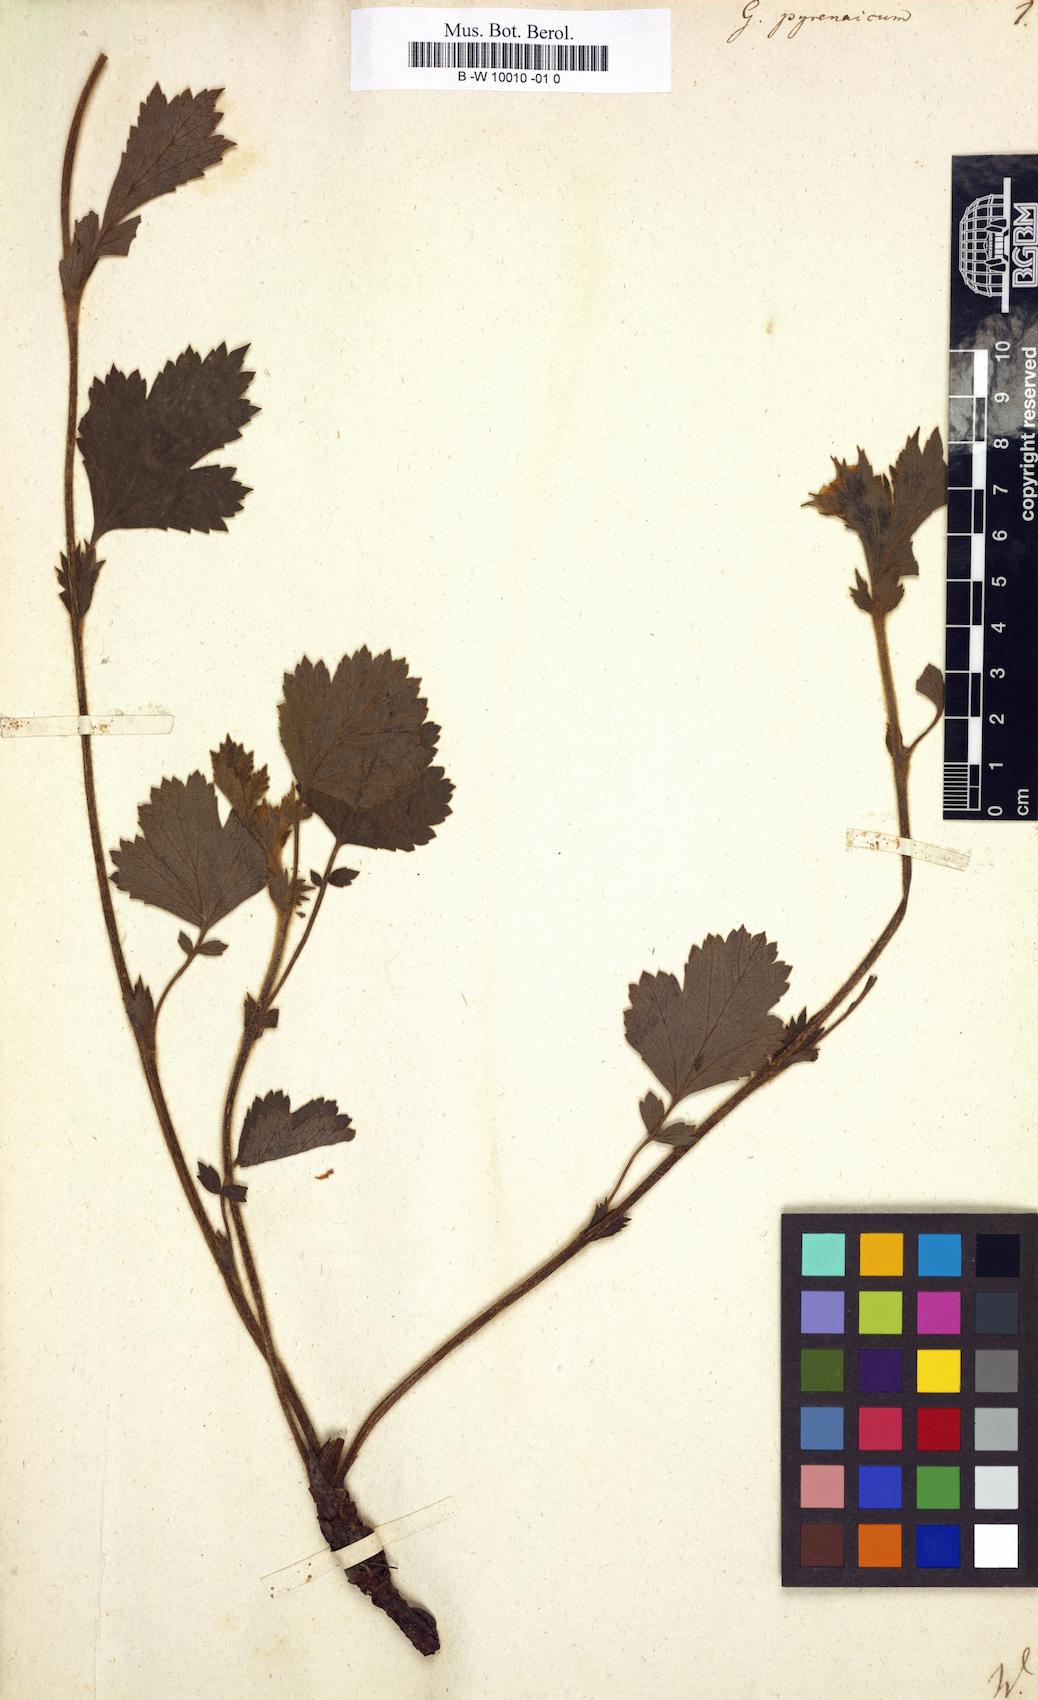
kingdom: Plantae
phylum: Tracheophyta
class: Magnoliopsida
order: Rosales
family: Rosaceae
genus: Geum
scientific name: Geum pyrenaicum
